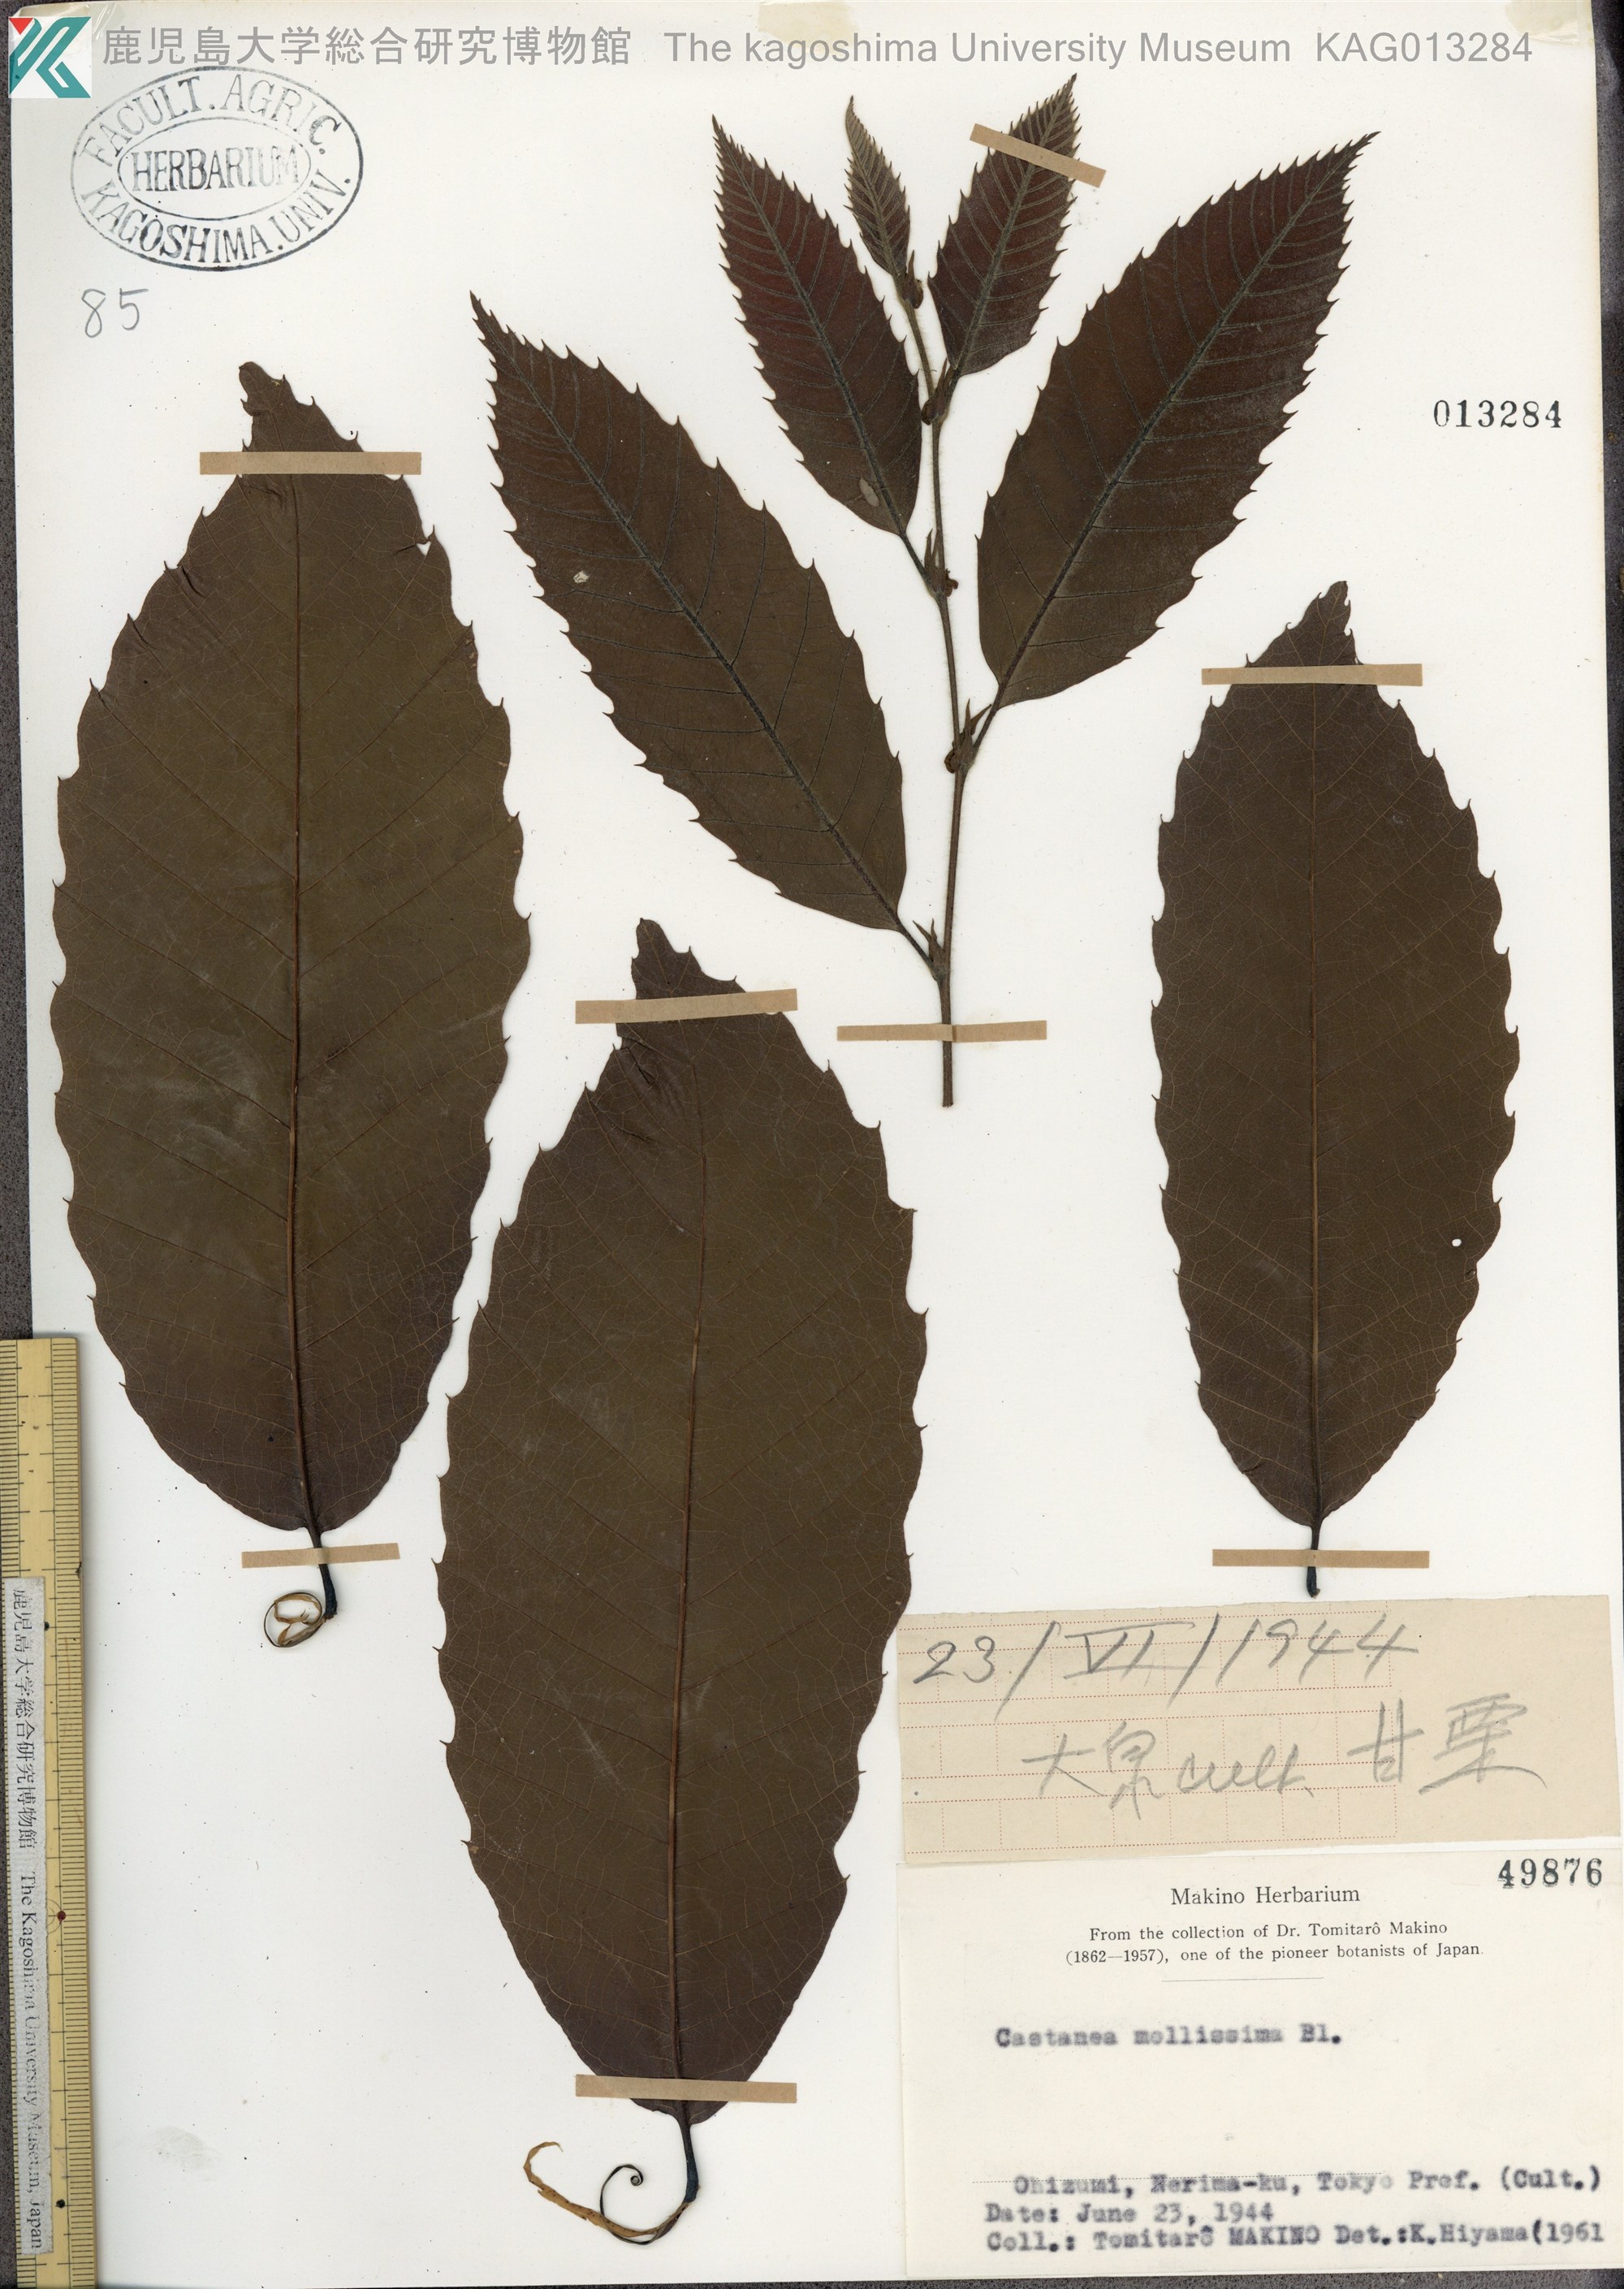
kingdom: Plantae
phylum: Tracheophyta
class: Magnoliopsida
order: Fagales
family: Fagaceae
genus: Castanea
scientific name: Castanea mollissima
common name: Chinese chestnut
